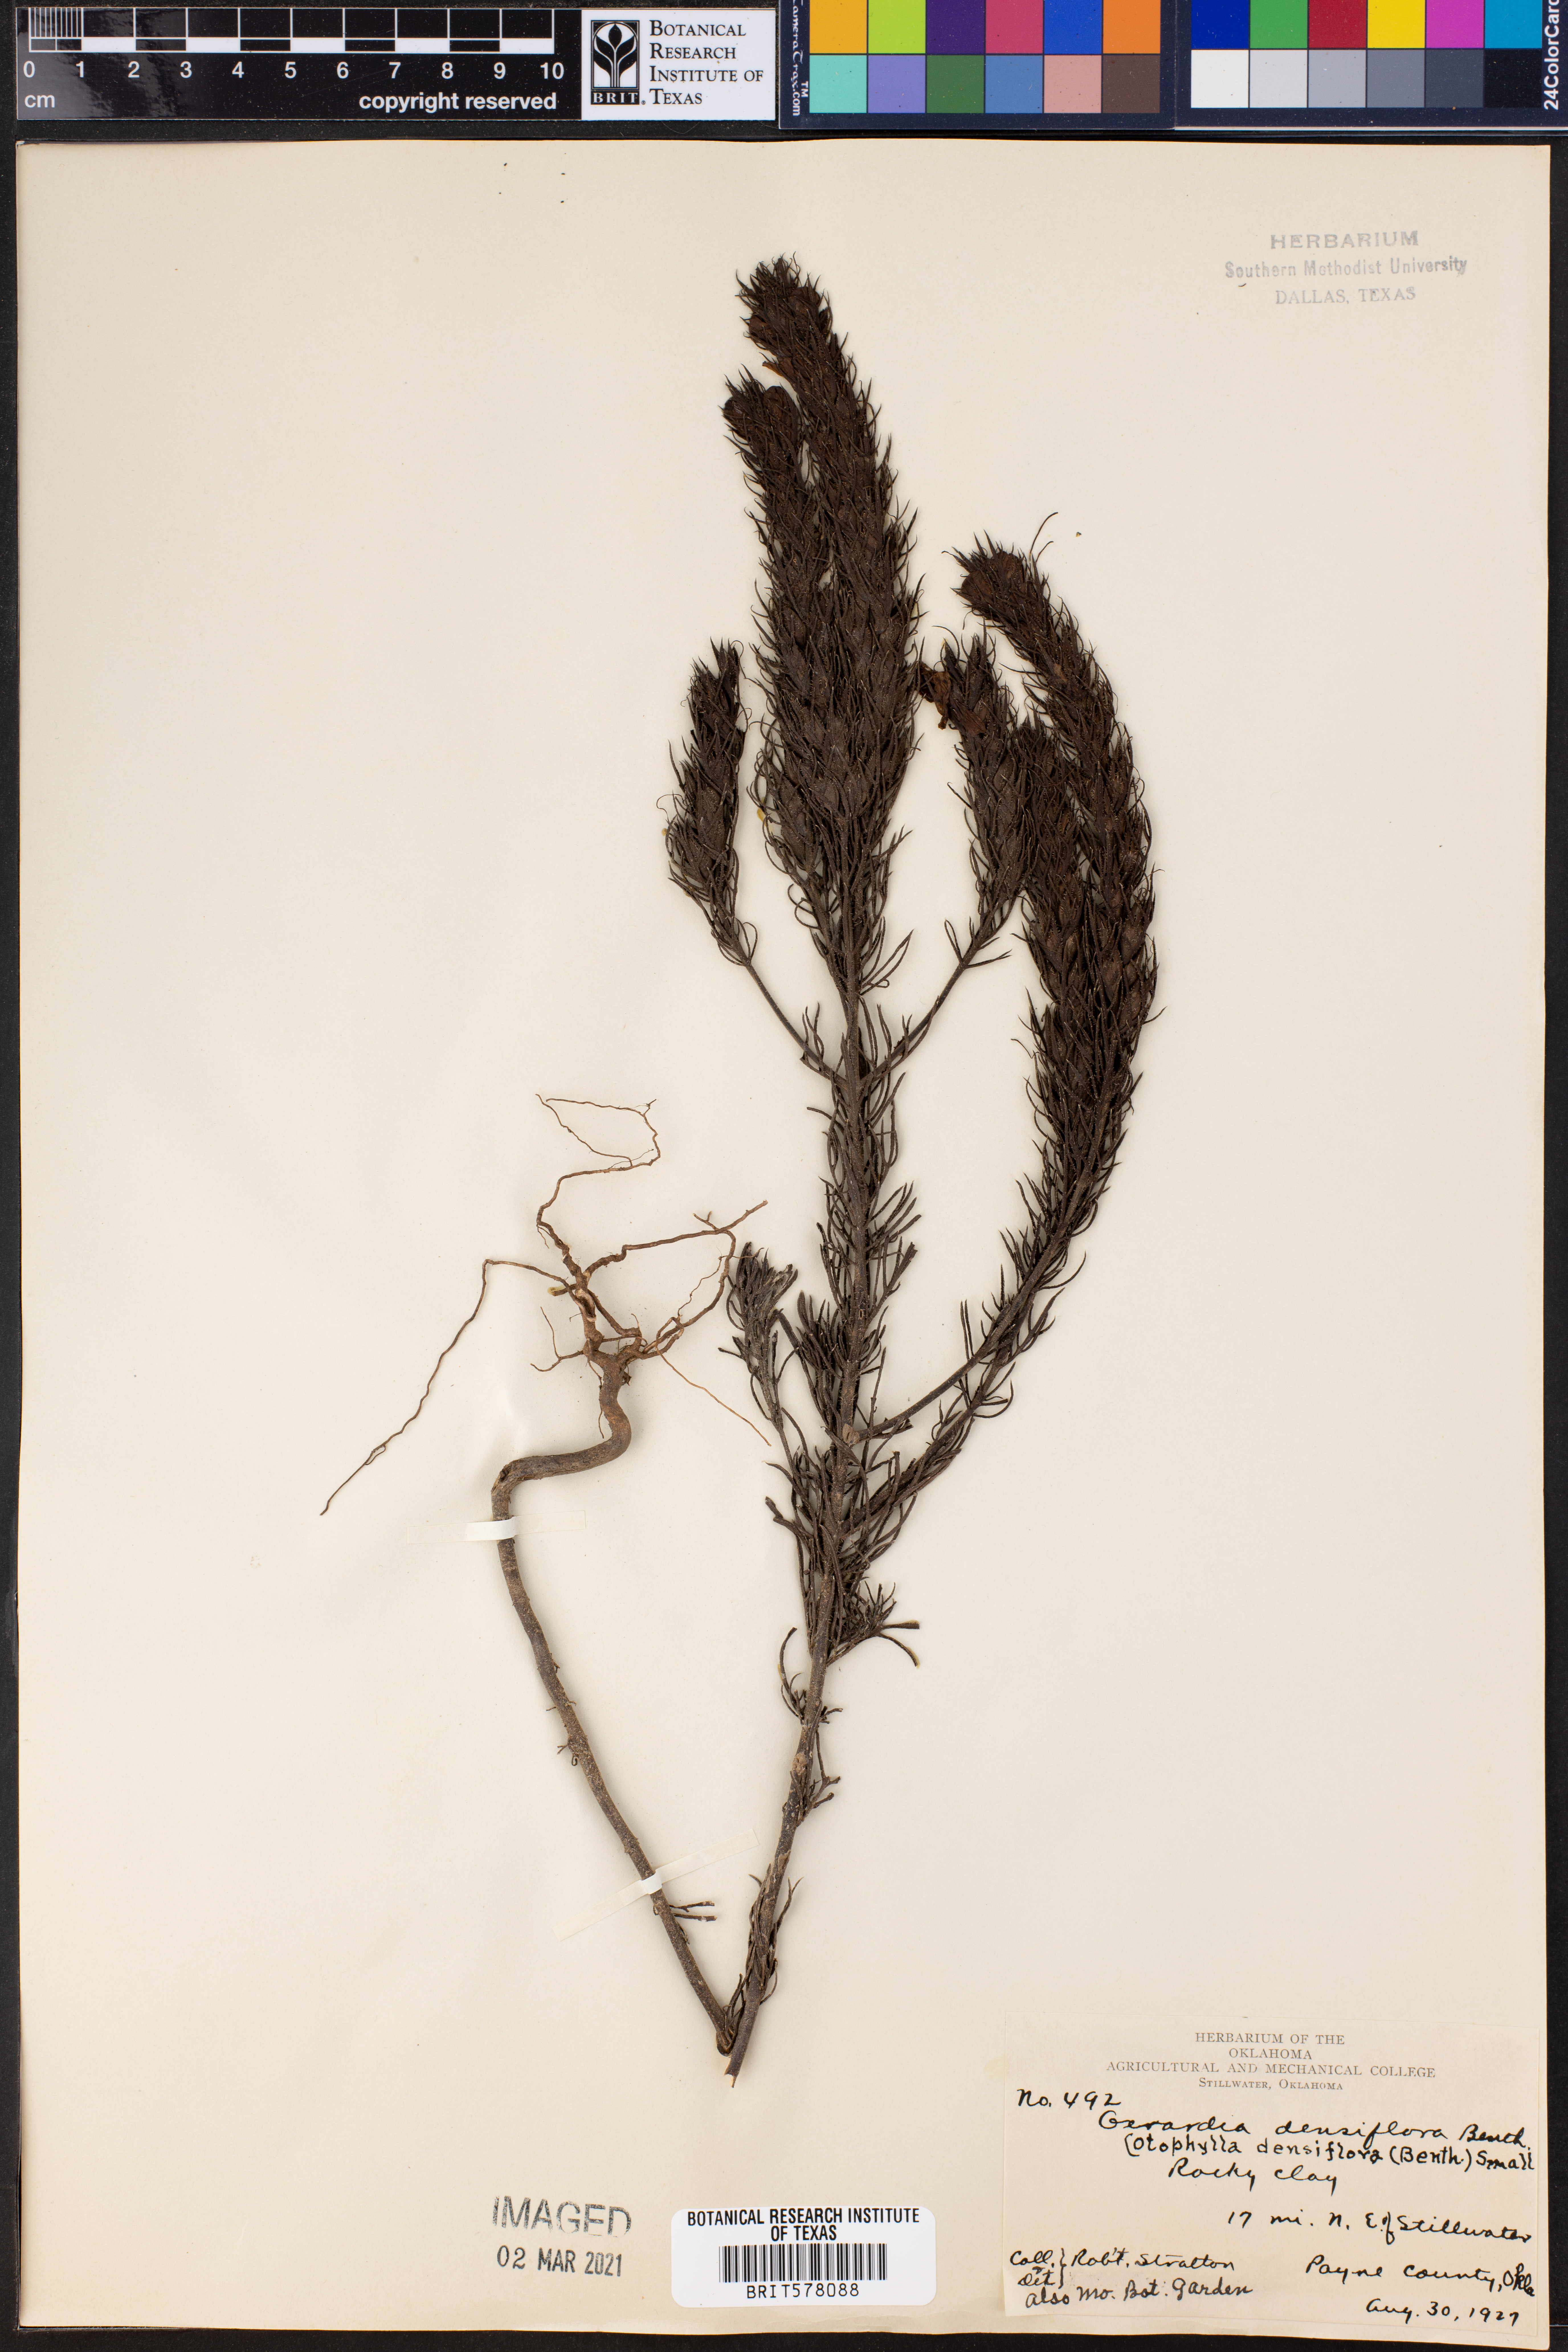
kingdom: Plantae
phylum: Tracheophyta
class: Magnoliopsida
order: Lamiales
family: Orobanchaceae
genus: Agalinis
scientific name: Agalinis densiflora
